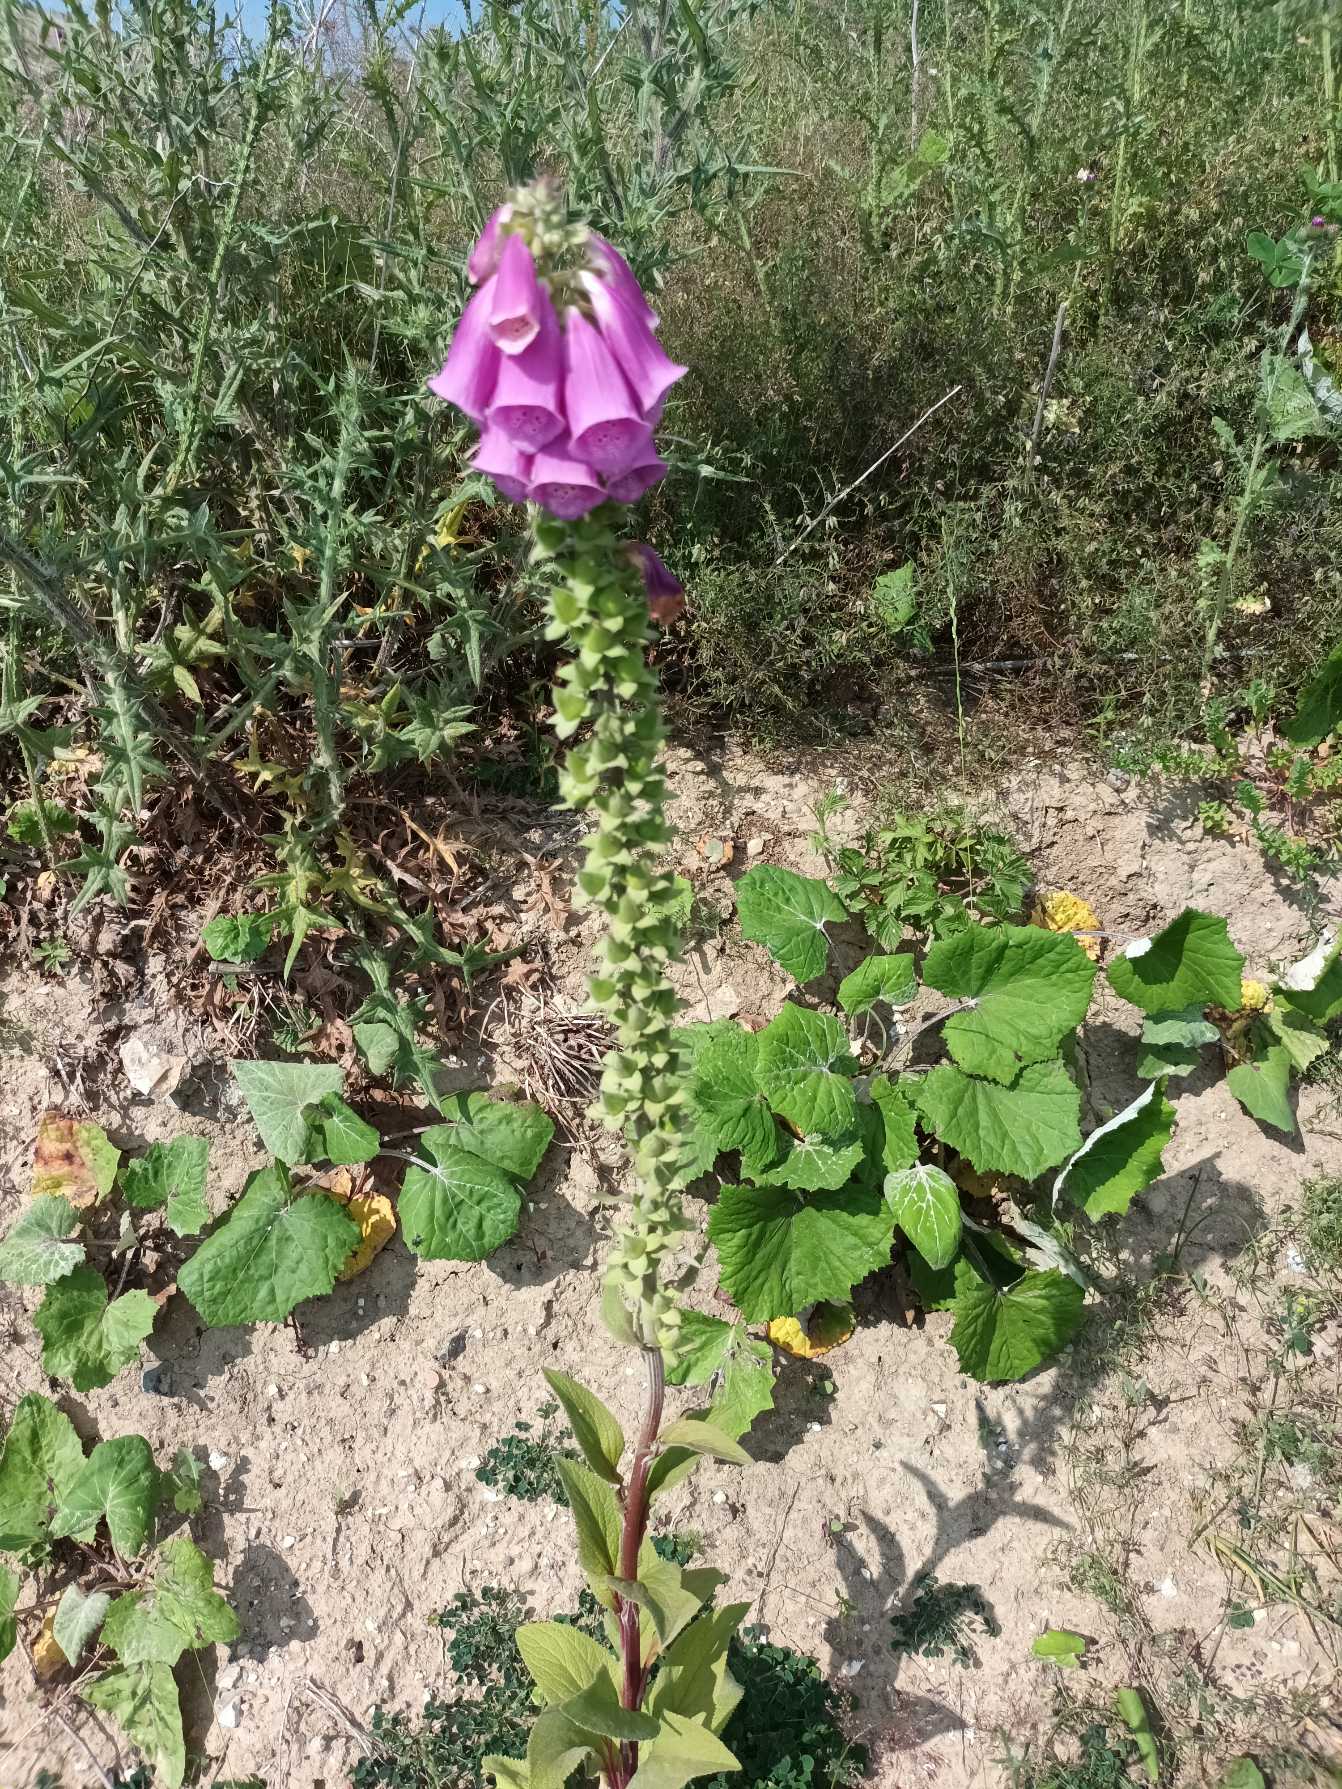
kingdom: Plantae
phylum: Tracheophyta
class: Magnoliopsida
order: Lamiales
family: Plantaginaceae
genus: Digitalis
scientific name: Digitalis purpurea
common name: Almindelig fingerbøl
